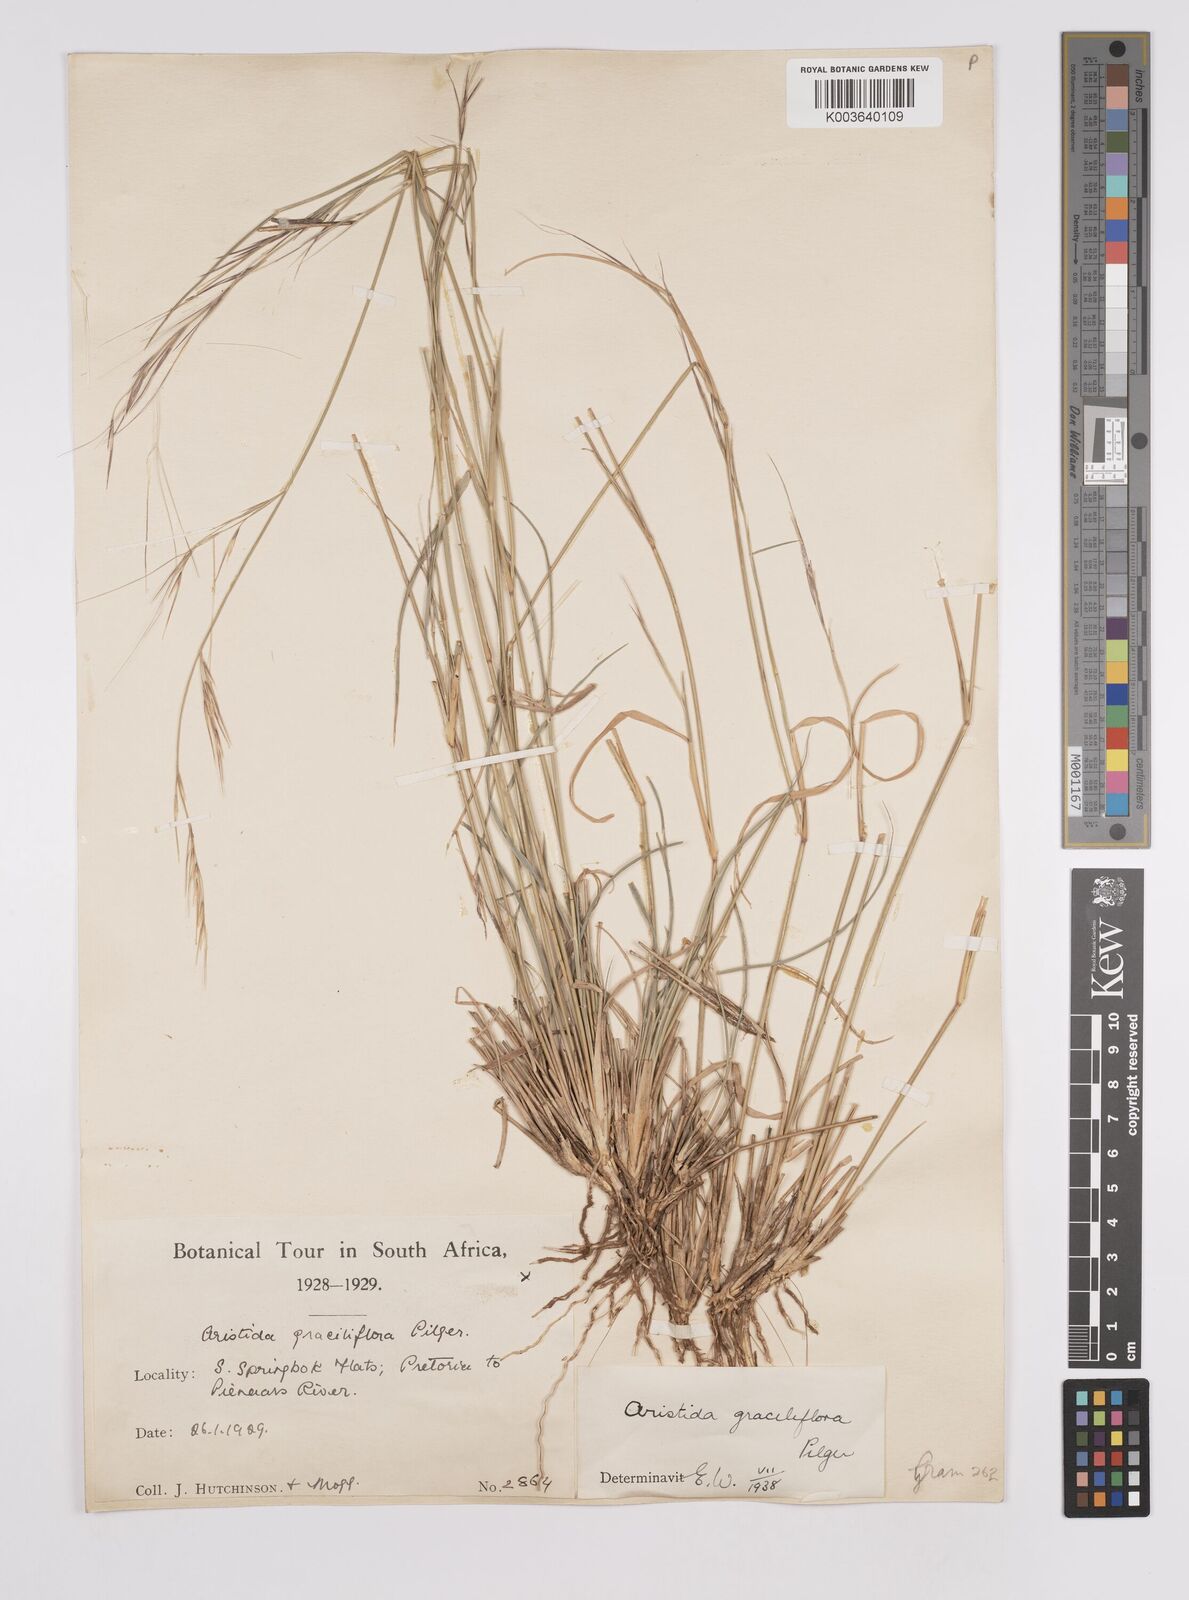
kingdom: Plantae
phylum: Tracheophyta
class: Liliopsida
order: Poales
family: Poaceae
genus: Aristida
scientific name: Aristida stipitata
